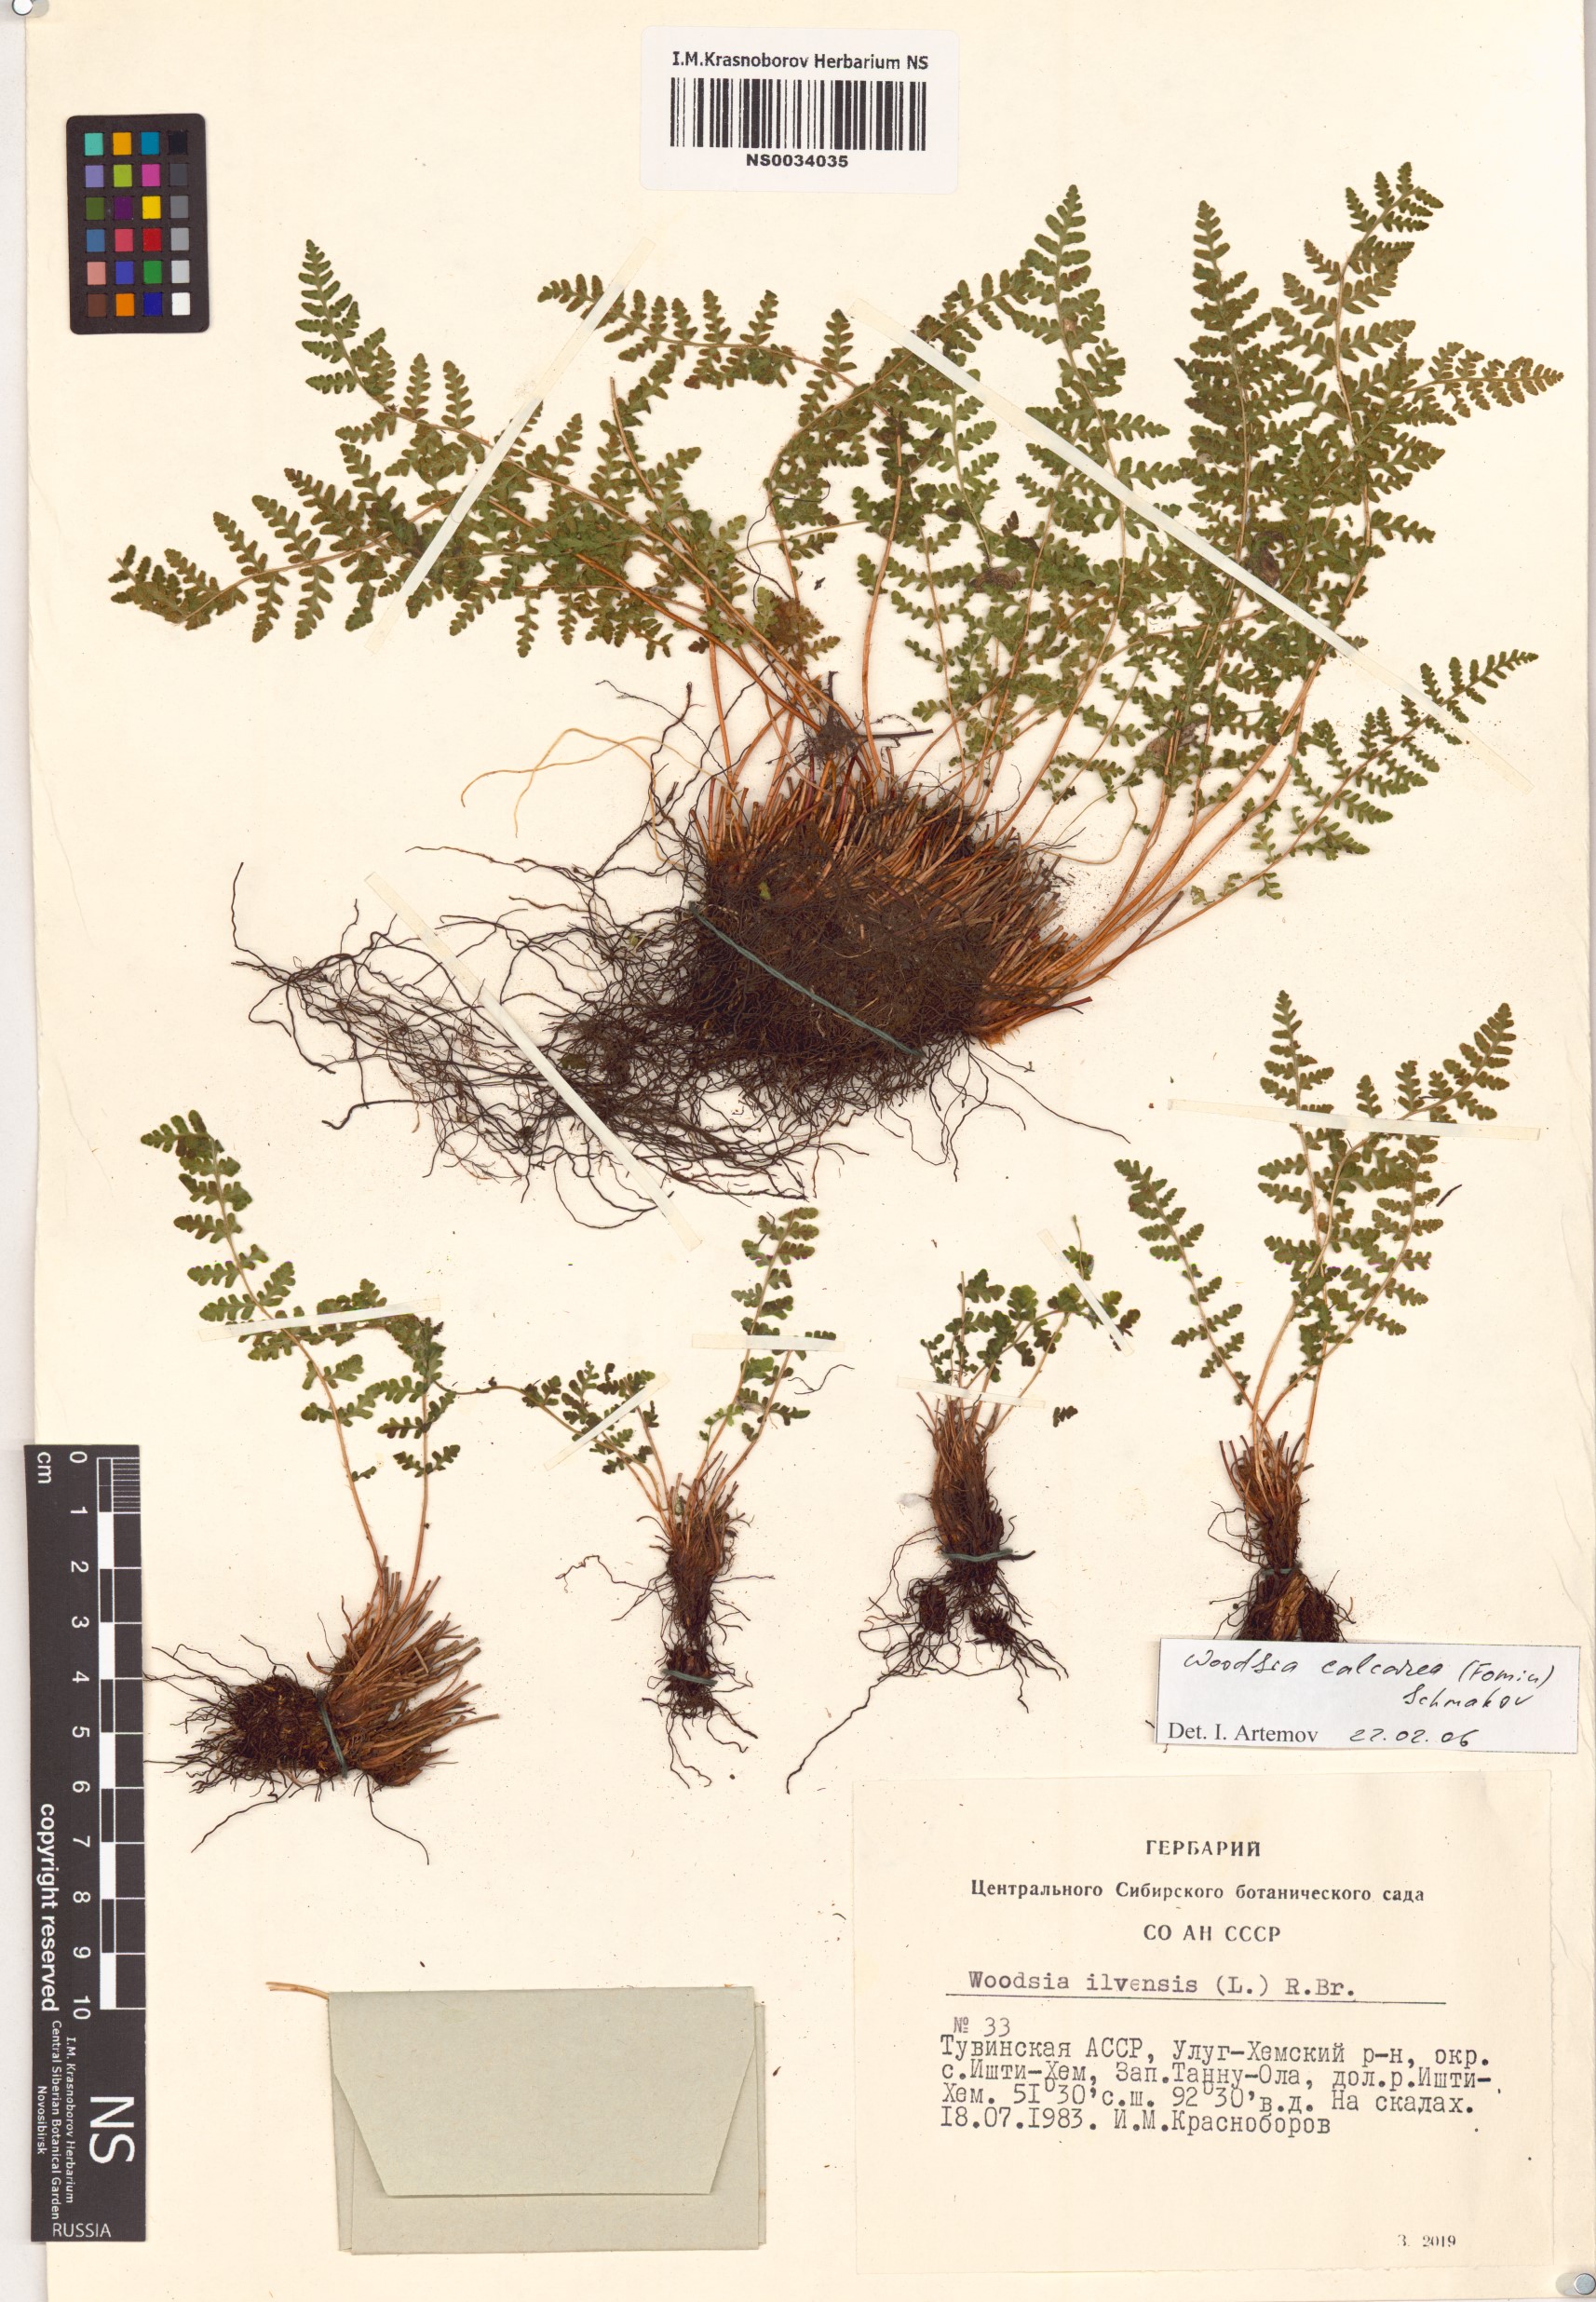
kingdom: Plantae
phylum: Tracheophyta
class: Polypodiopsida
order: Polypodiales
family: Woodsiaceae
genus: Woodsia
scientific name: Woodsia calcarea
